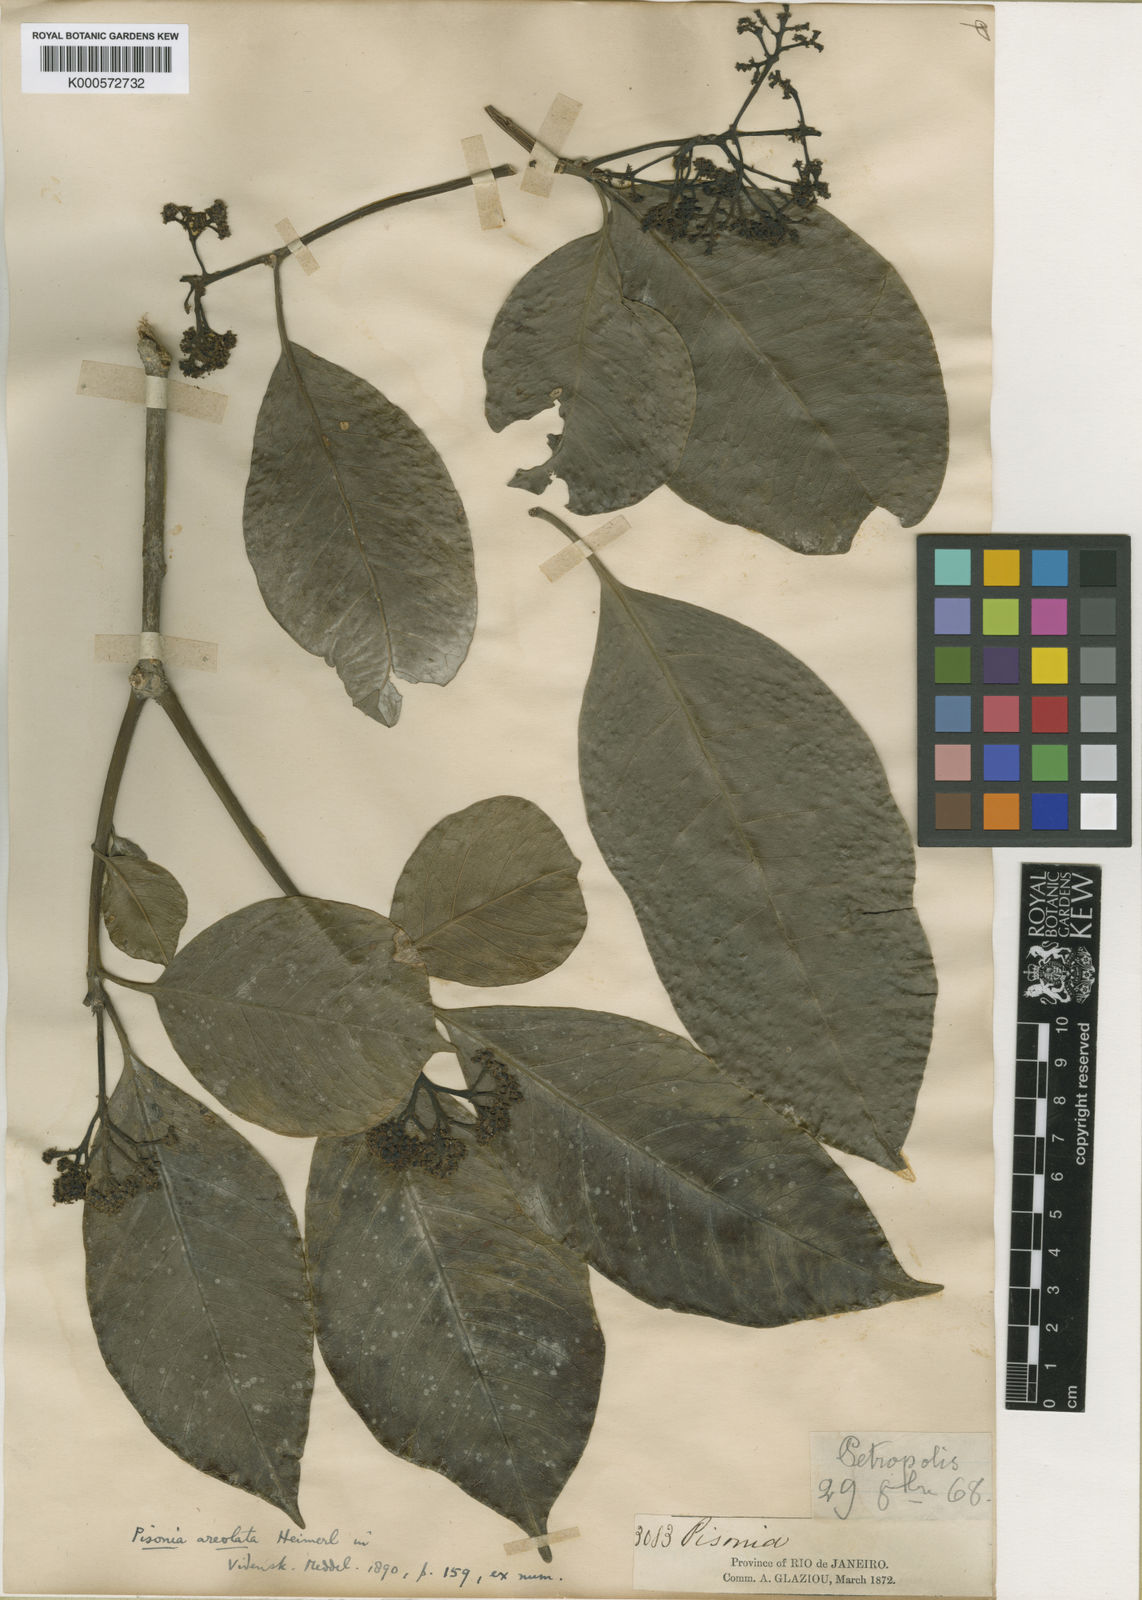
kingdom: Plantae
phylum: Tracheophyta
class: Magnoliopsida
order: Caryophyllales
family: Nyctaginaceae
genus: Guapira
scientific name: Guapira areolata
